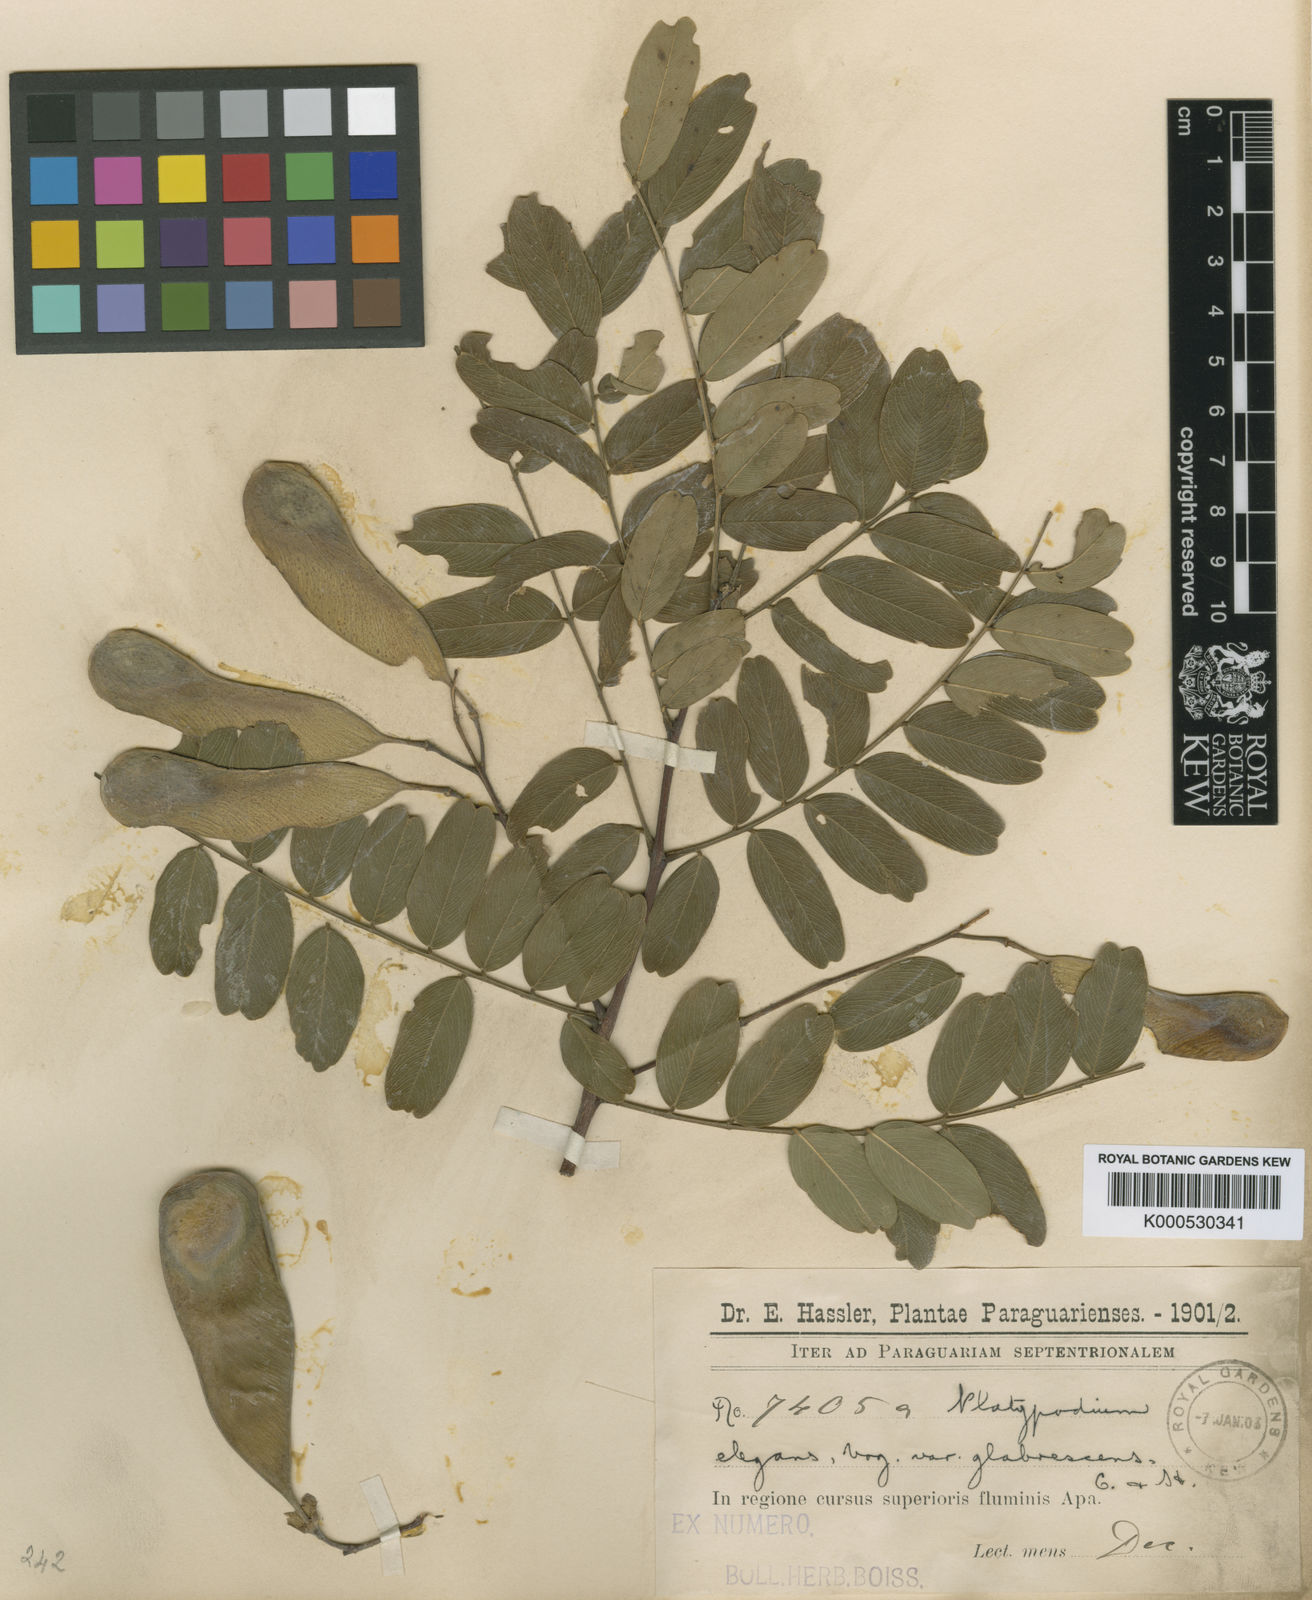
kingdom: Plantae
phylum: Tracheophyta
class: Magnoliopsida
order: Fabales
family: Fabaceae
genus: Platypodium
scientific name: Platypodium elegans
